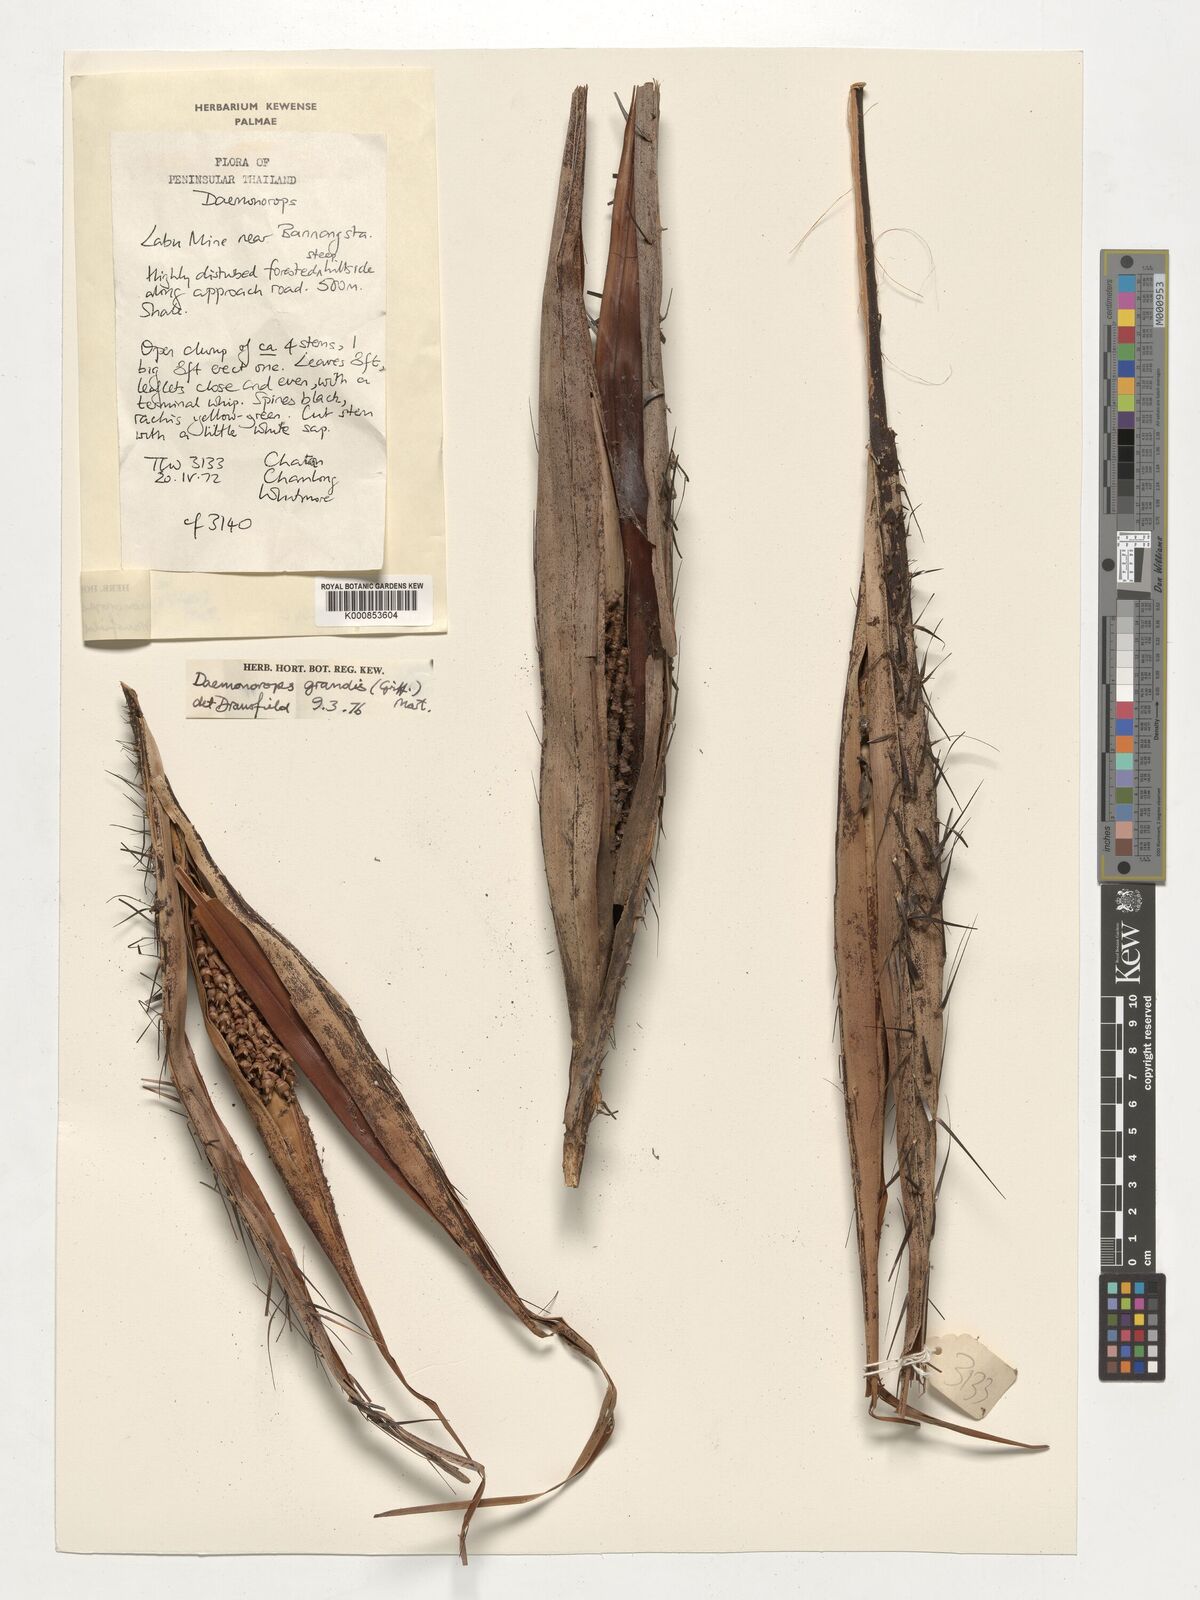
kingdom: Plantae
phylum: Tracheophyta
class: Liliopsida
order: Arecales
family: Arecaceae
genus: Calamus
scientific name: Calamus melanochaetes
